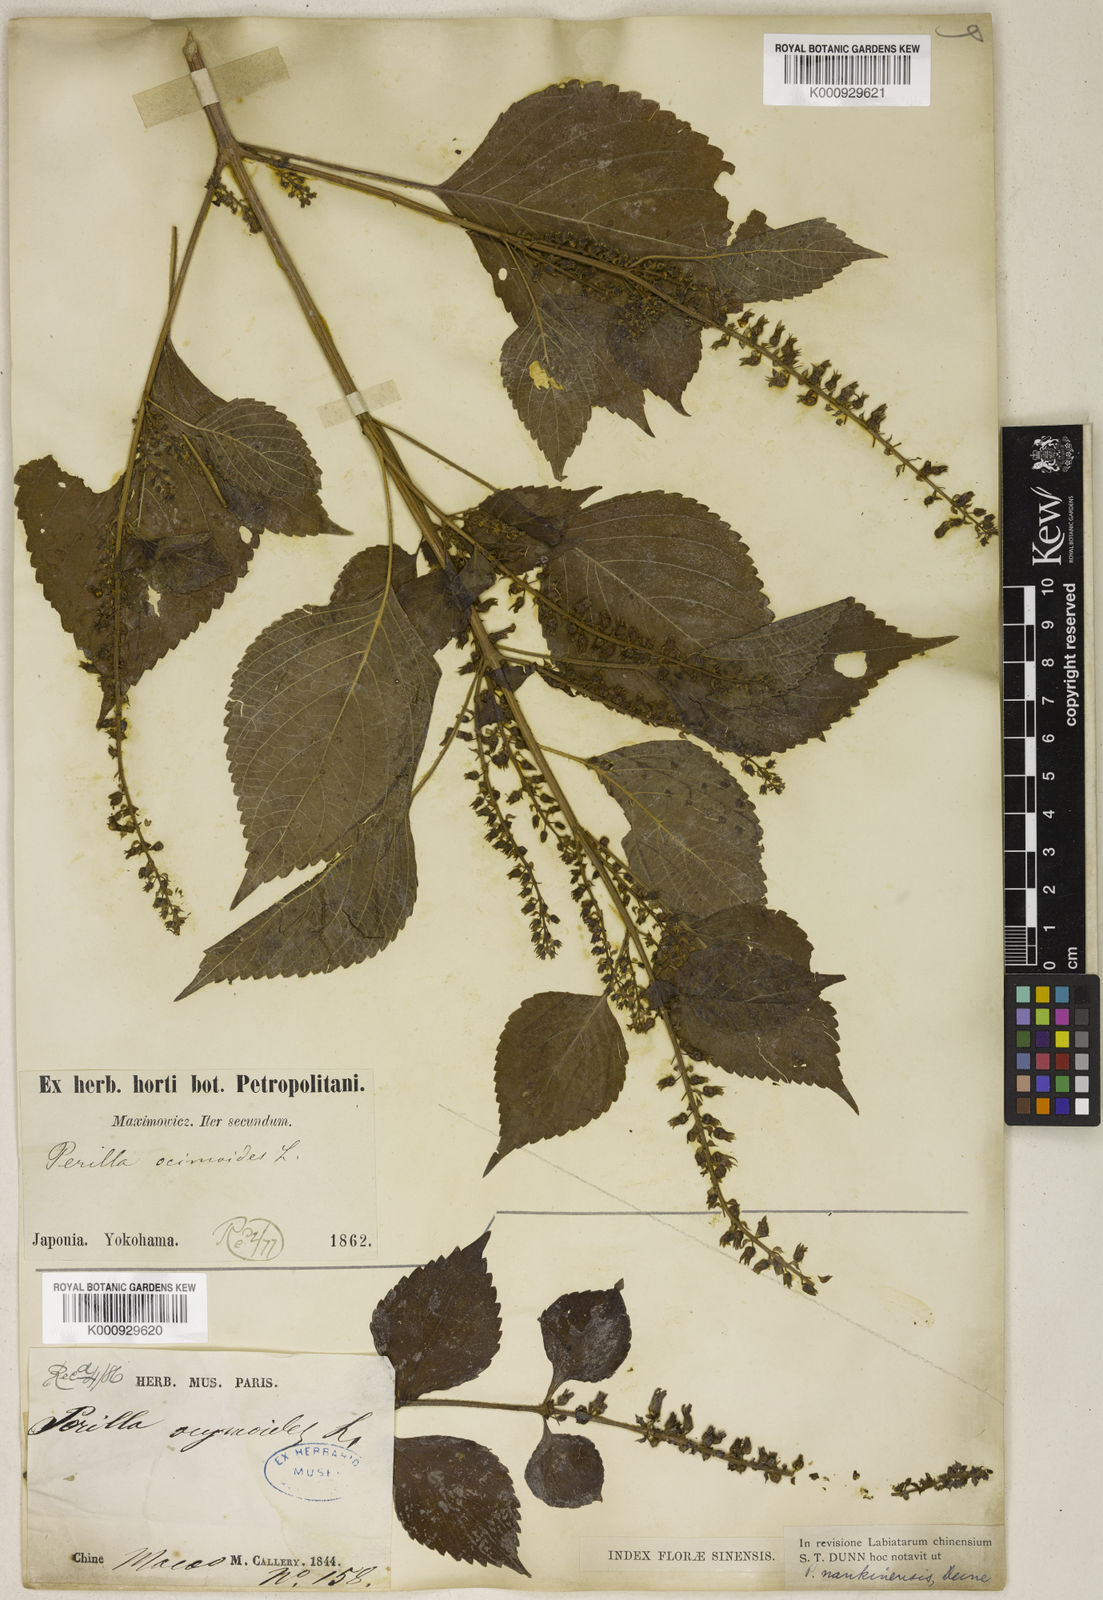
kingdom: Plantae
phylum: Tracheophyta
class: Magnoliopsida
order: Lamiales
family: Lamiaceae
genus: Perilla
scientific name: Perilla frutescens
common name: Perilla
